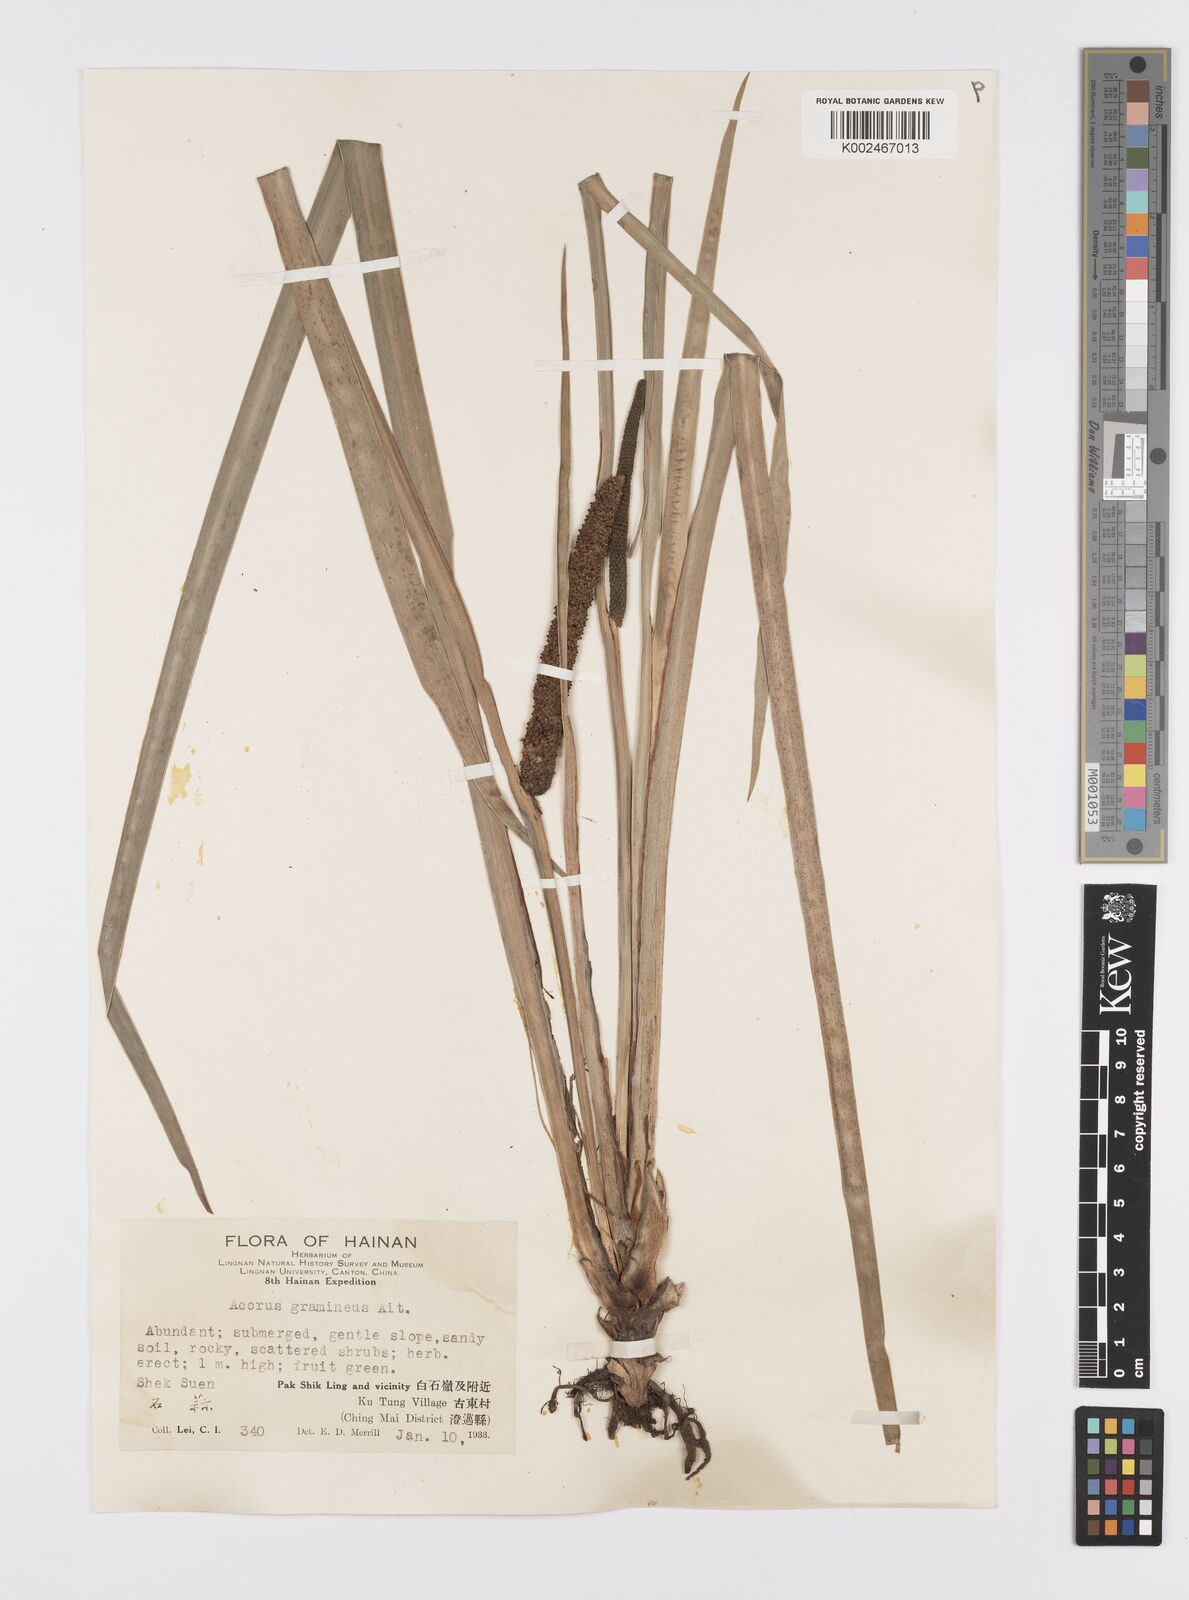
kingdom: Plantae
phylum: Tracheophyta
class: Liliopsida
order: Acorales
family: Acoraceae
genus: Acorus
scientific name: Acorus gramineus
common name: Slender sweet-flag
